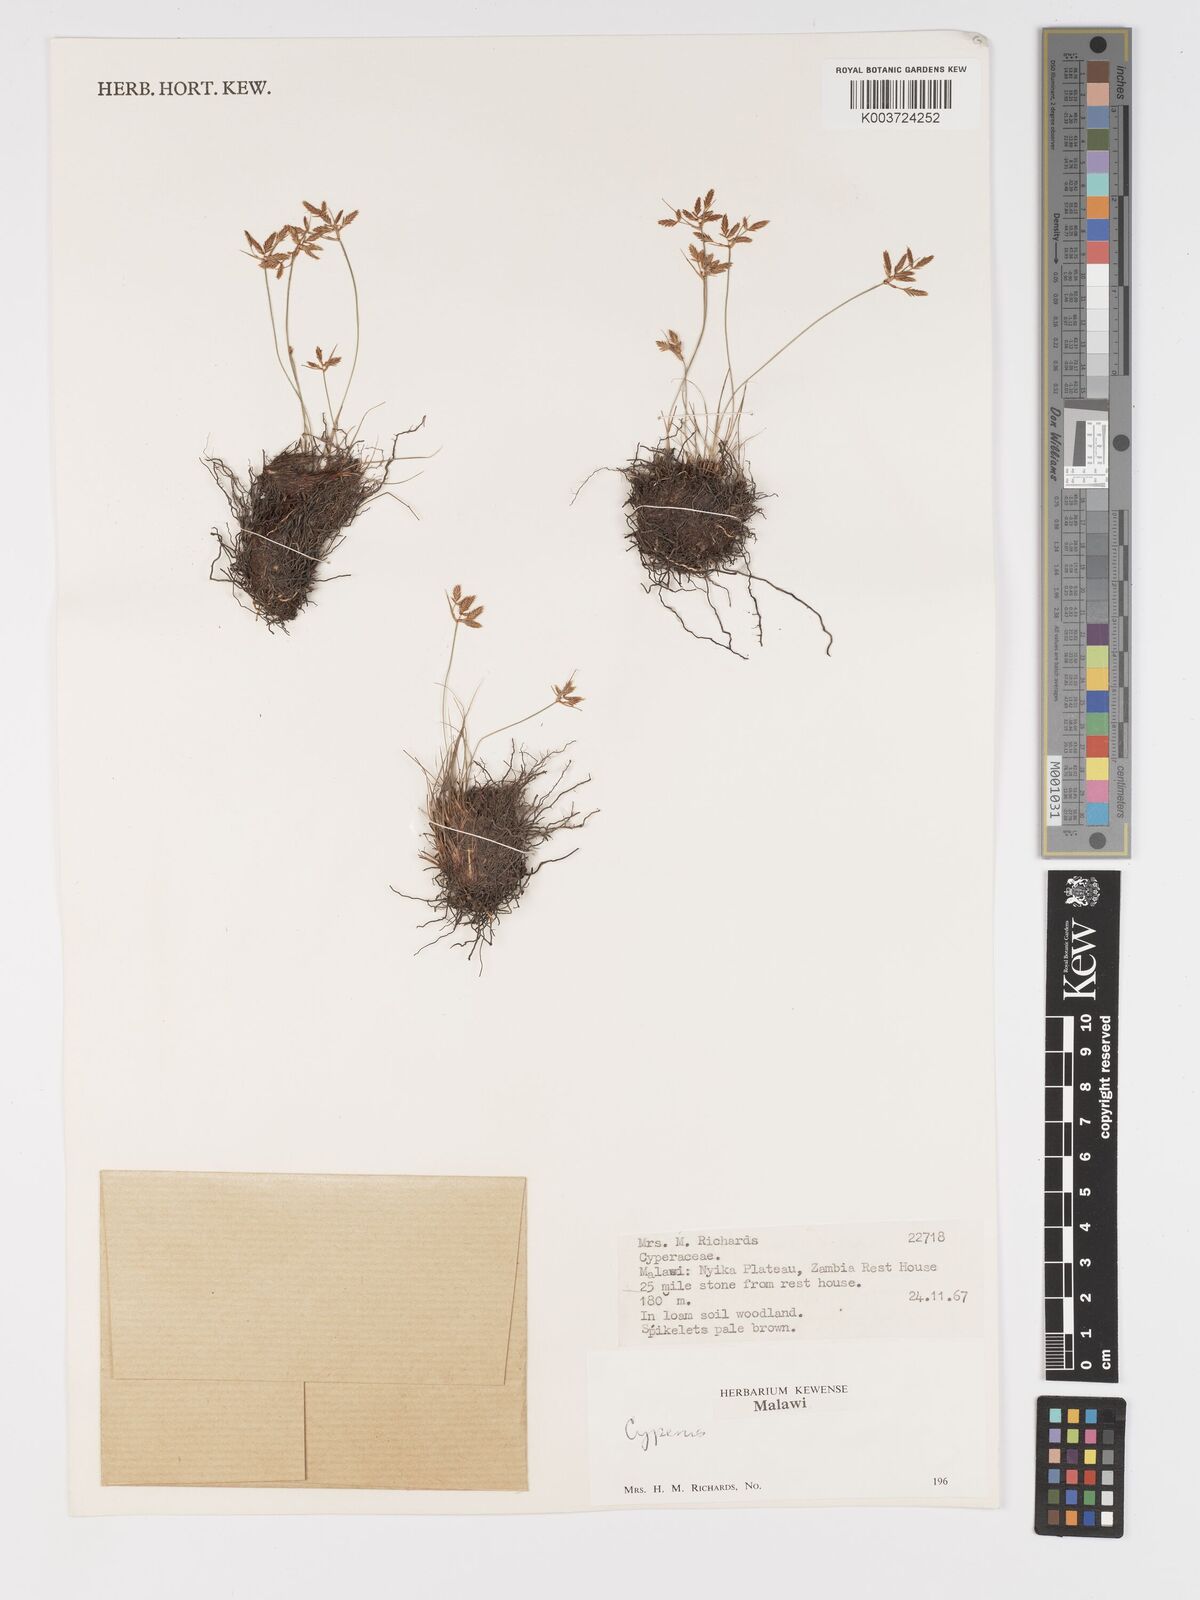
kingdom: Plantae
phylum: Tracheophyta
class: Liliopsida
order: Poales
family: Cyperaceae
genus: Cyperus
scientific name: Cyperus
